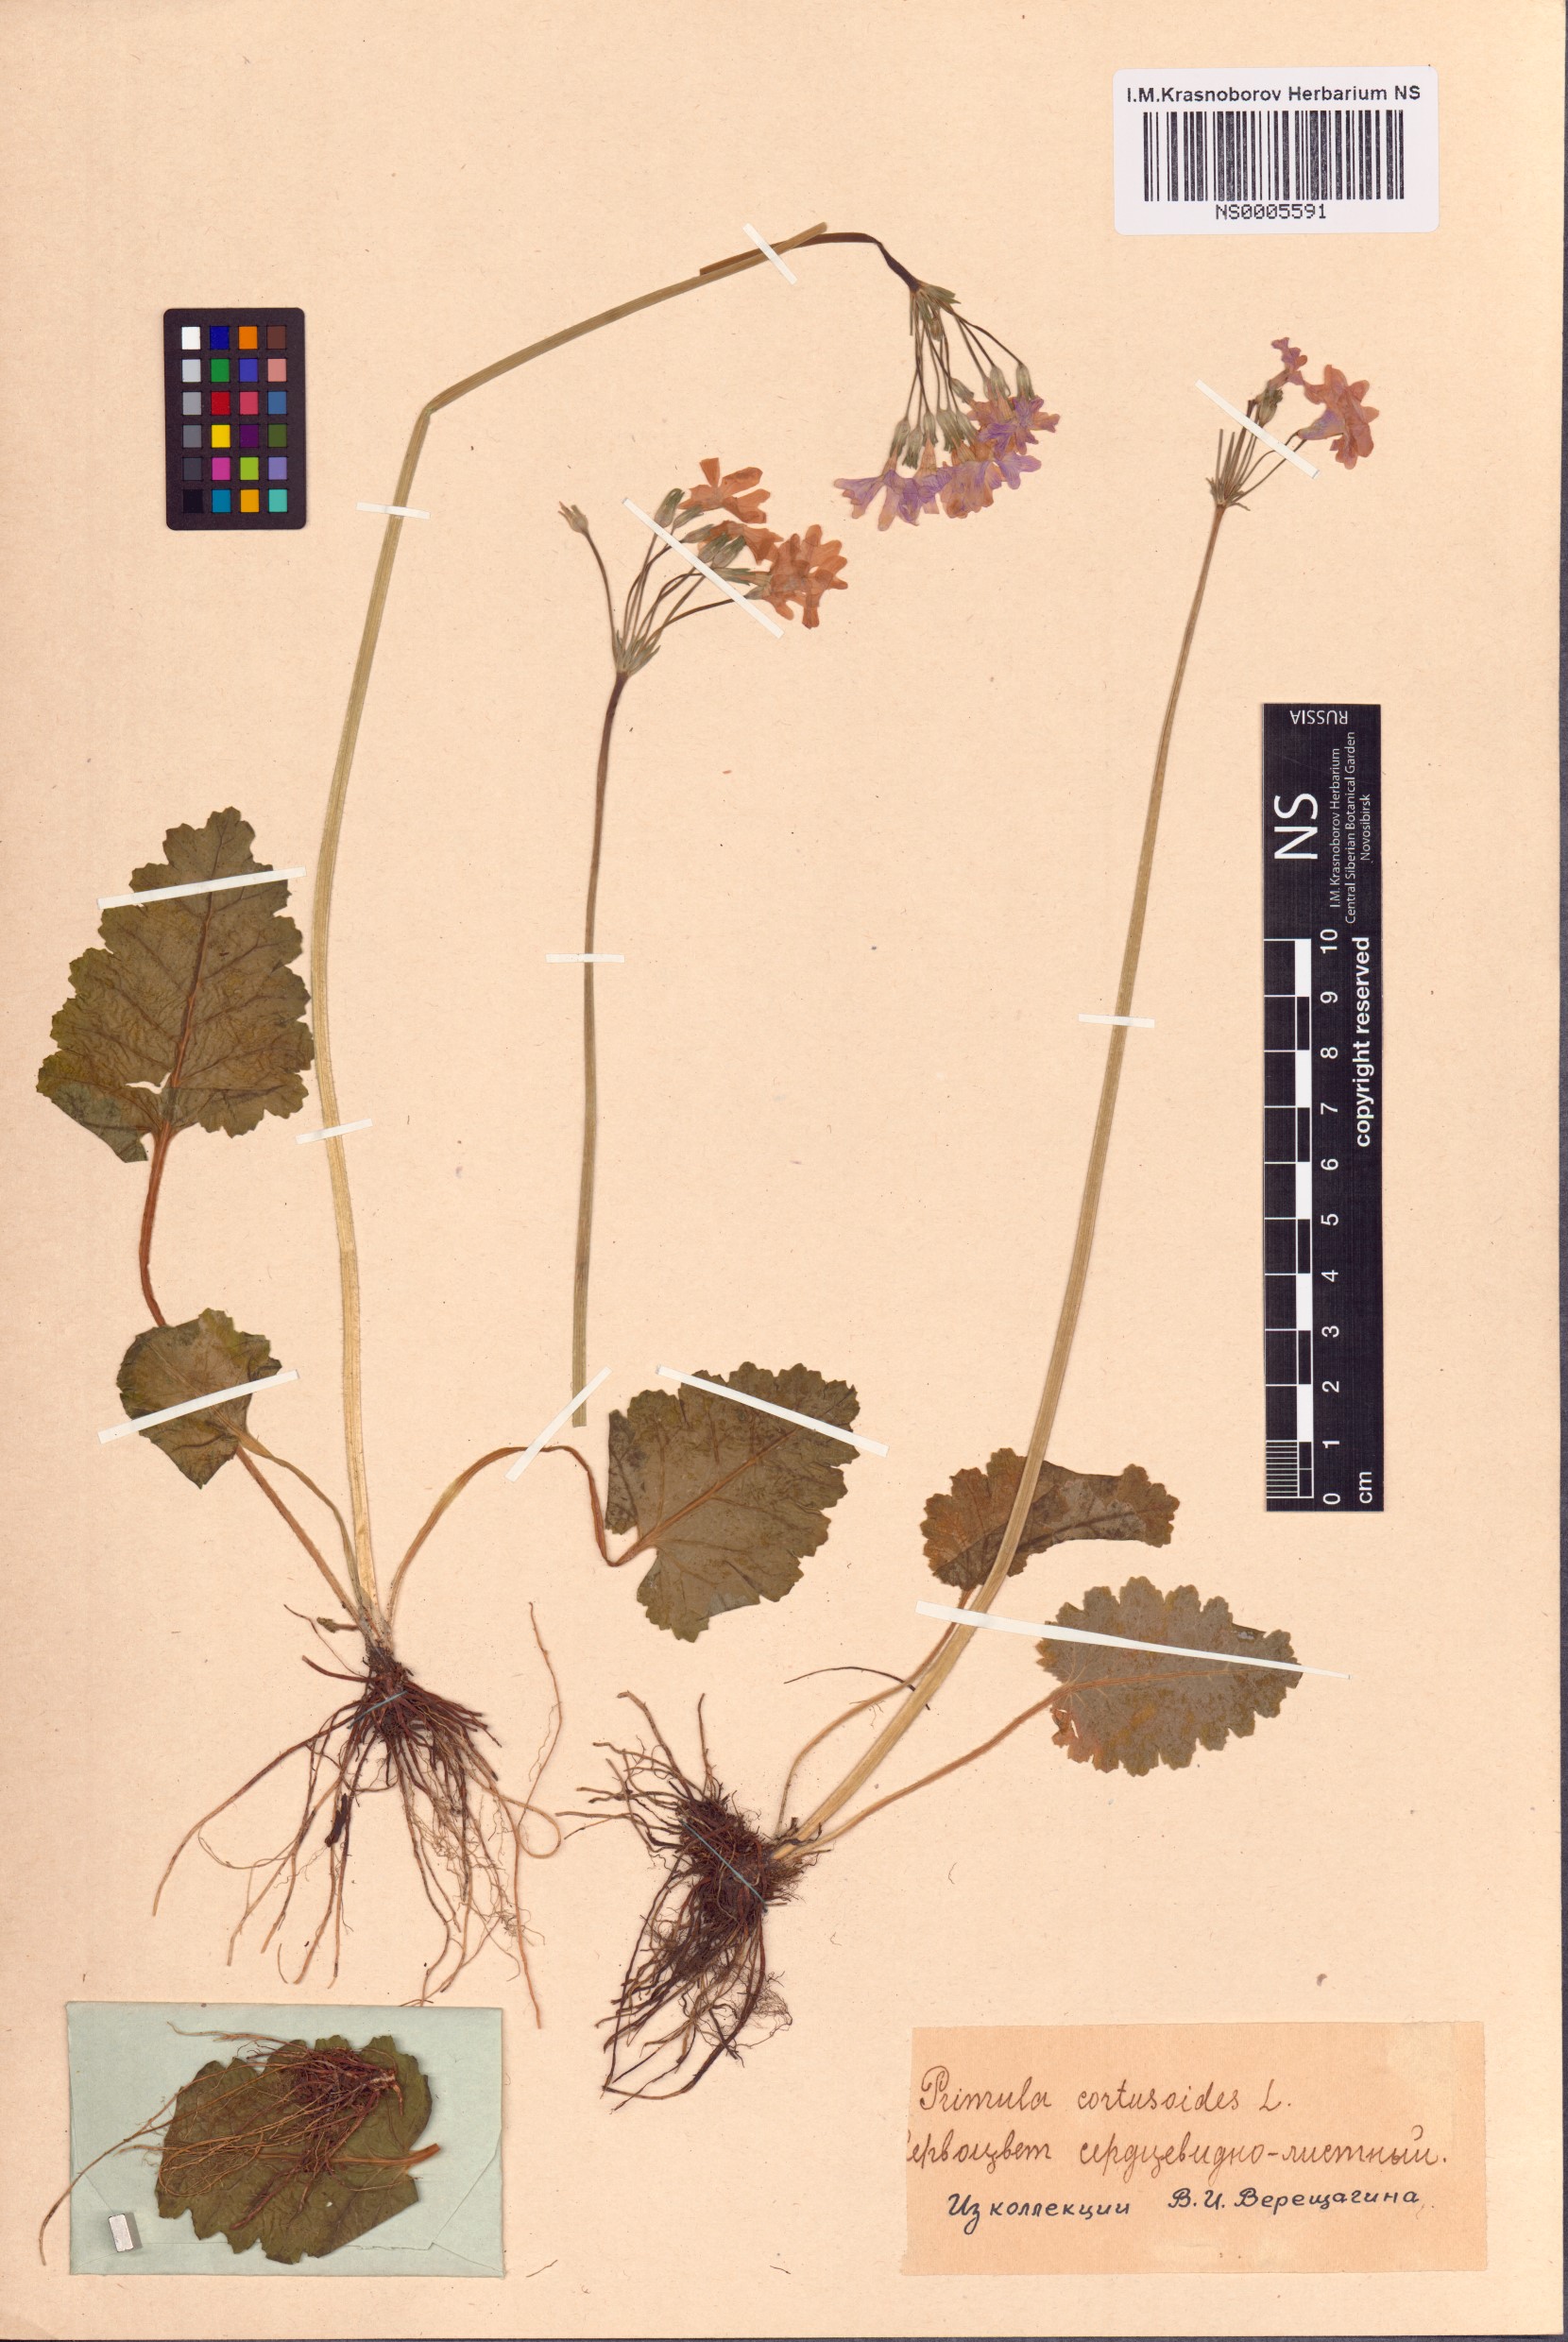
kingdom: Plantae
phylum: Tracheophyta
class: Magnoliopsida
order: Ericales
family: Primulaceae
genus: Primula
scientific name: Primula cortusoides
